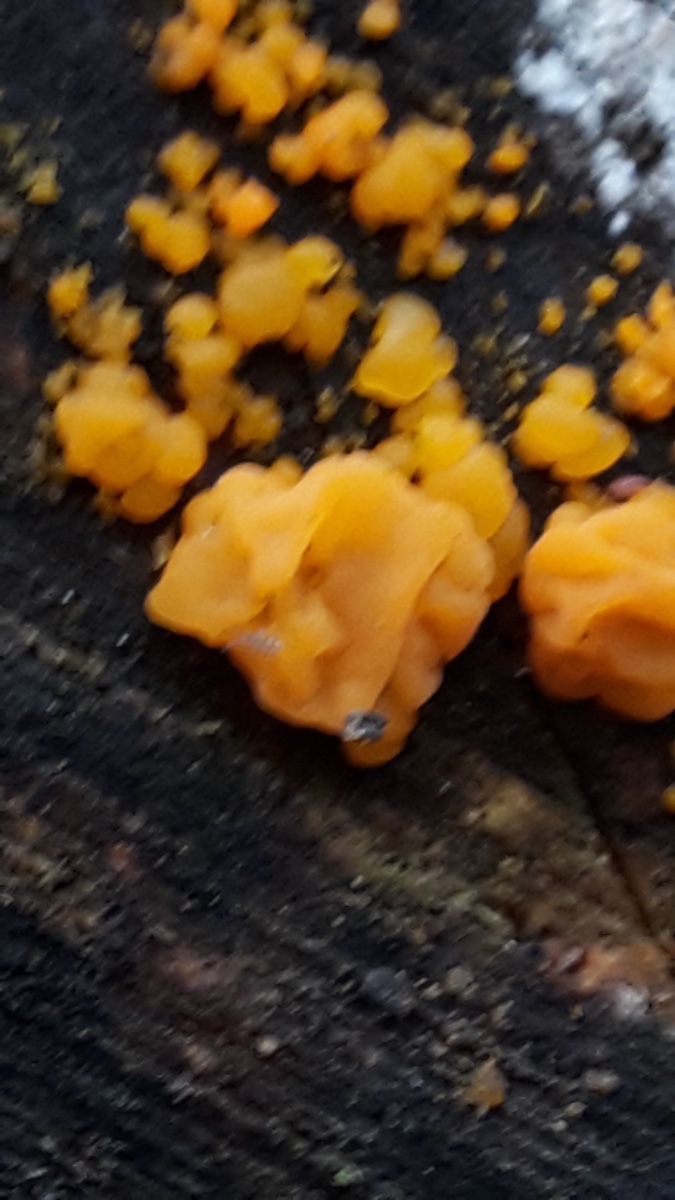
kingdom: Fungi
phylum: Basidiomycota
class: Dacrymycetes
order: Dacrymycetales
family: Dacrymycetaceae
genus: Dacrymyces
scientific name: Dacrymyces
